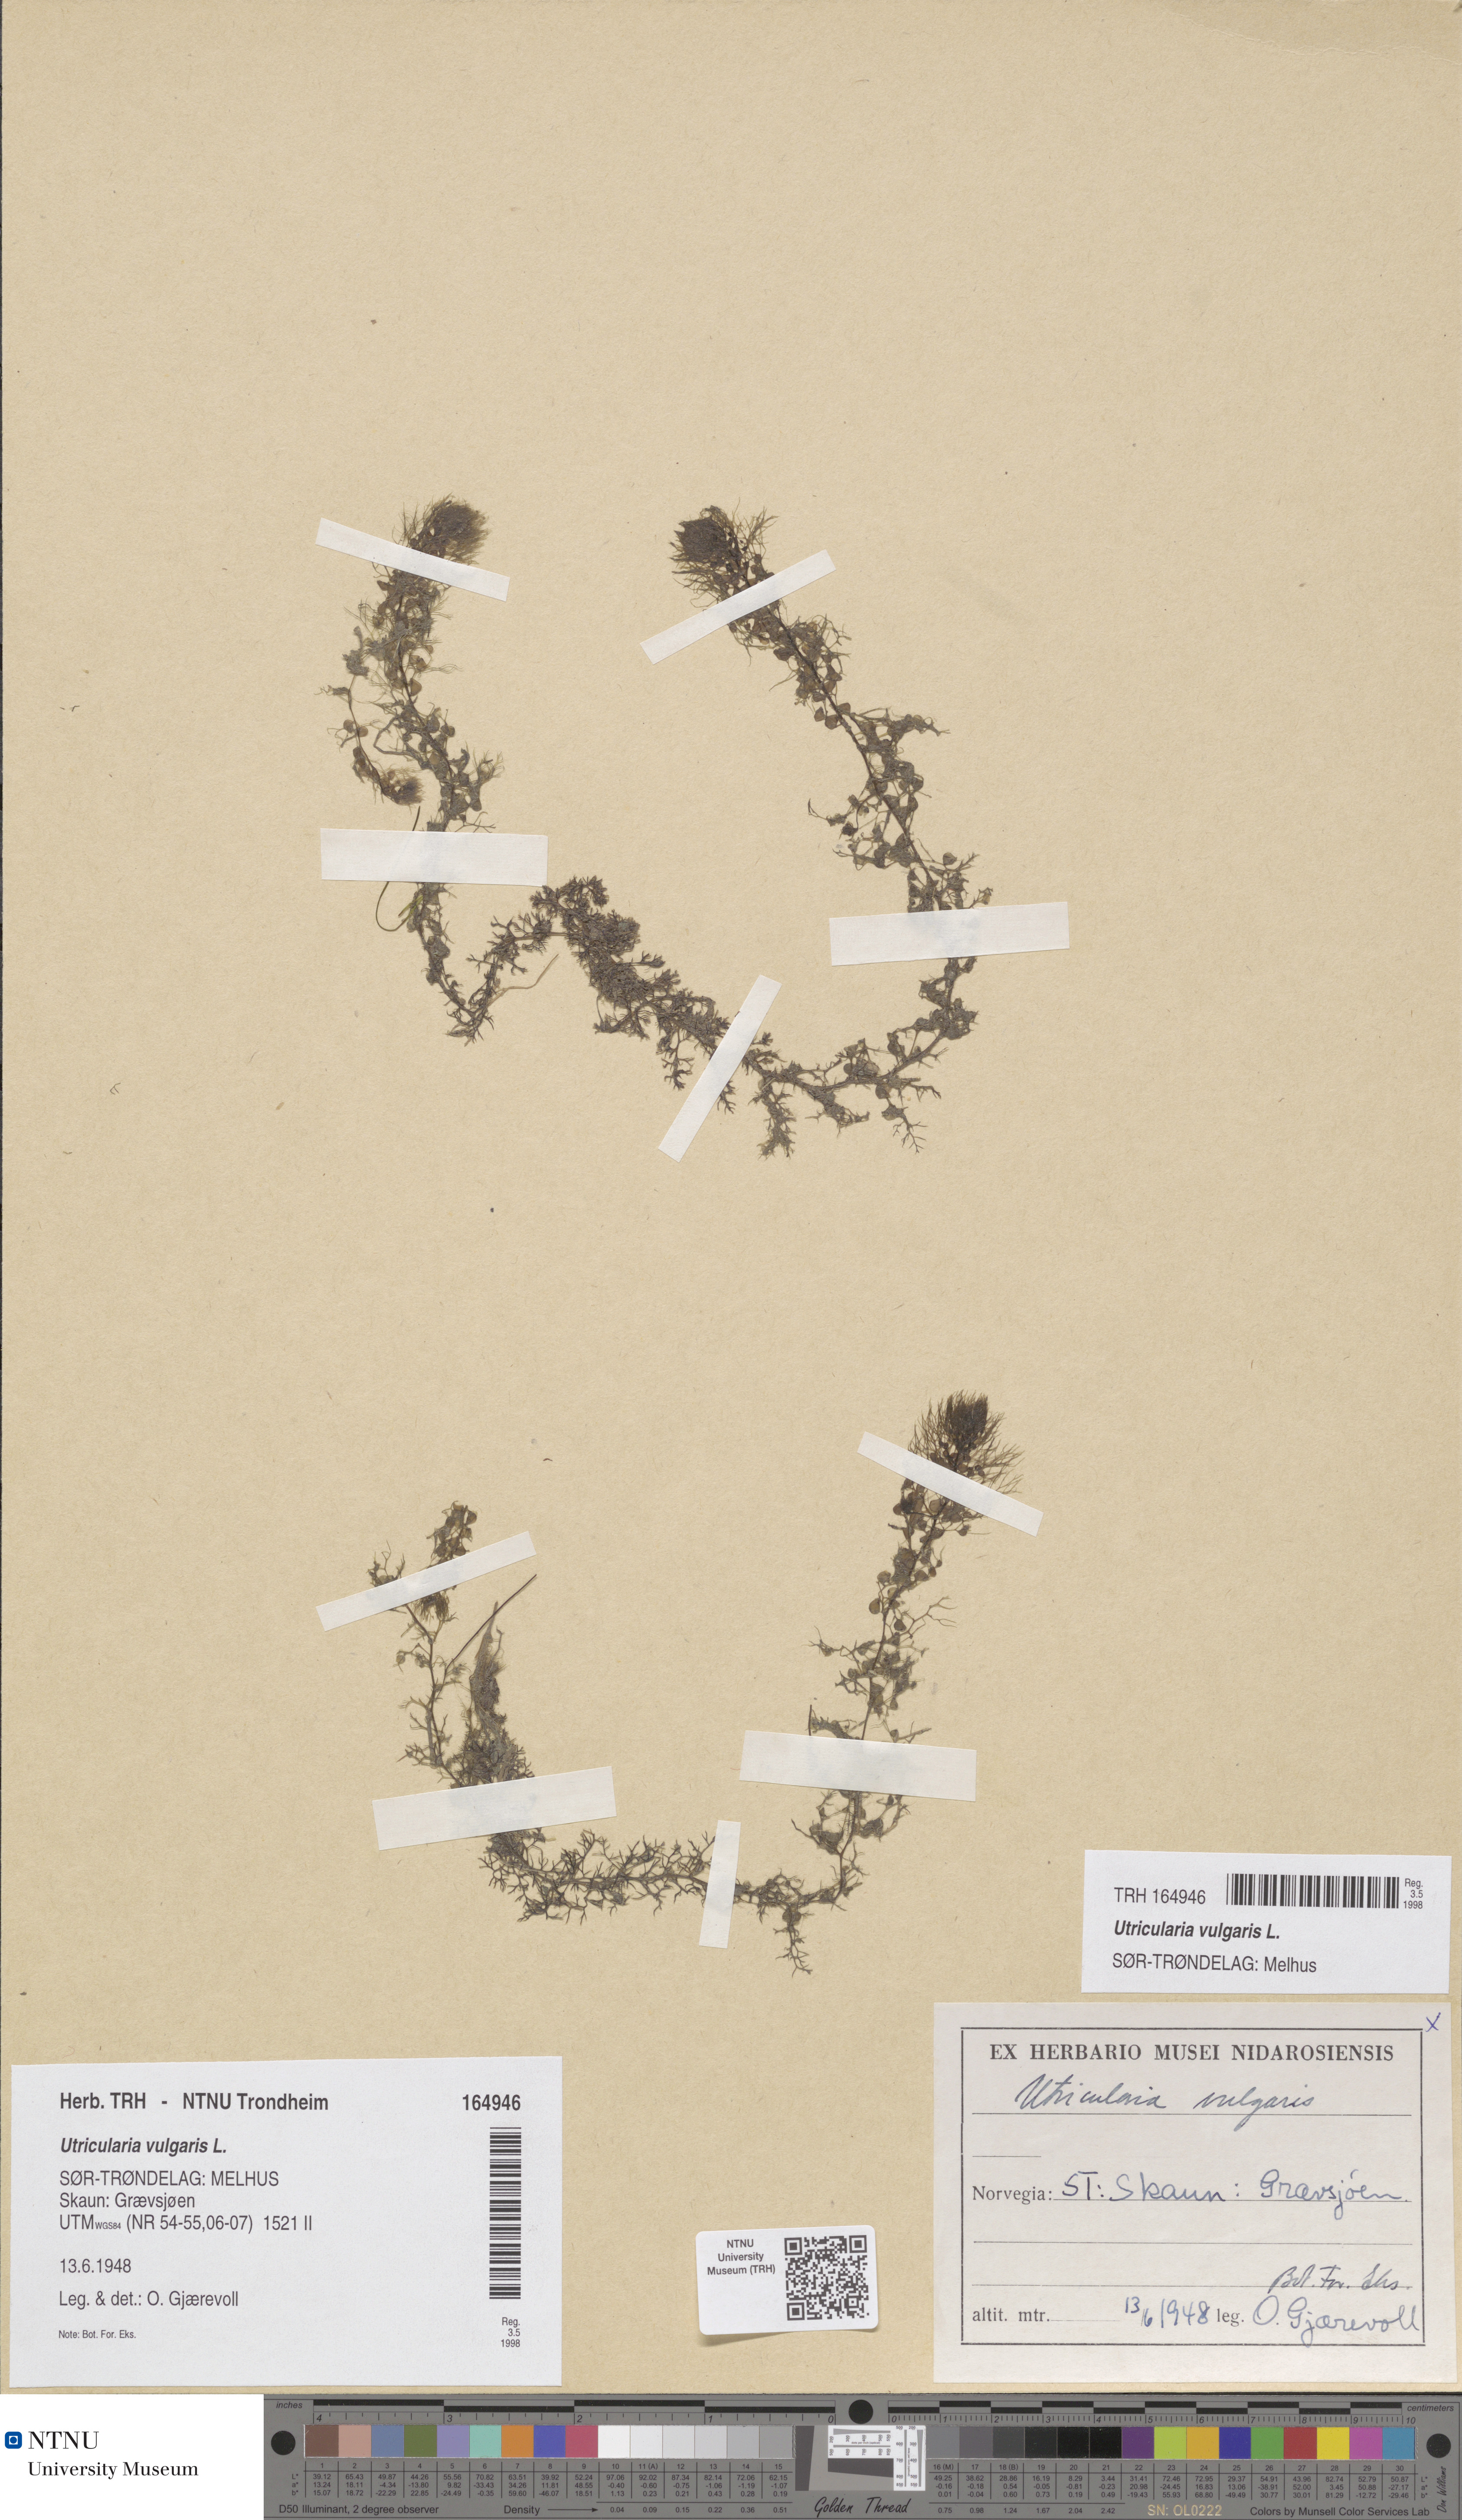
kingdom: Plantae
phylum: Tracheophyta
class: Magnoliopsida
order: Lamiales
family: Lentibulariaceae
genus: Utricularia
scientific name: Utricularia vulgaris
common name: Greater bladderwort
